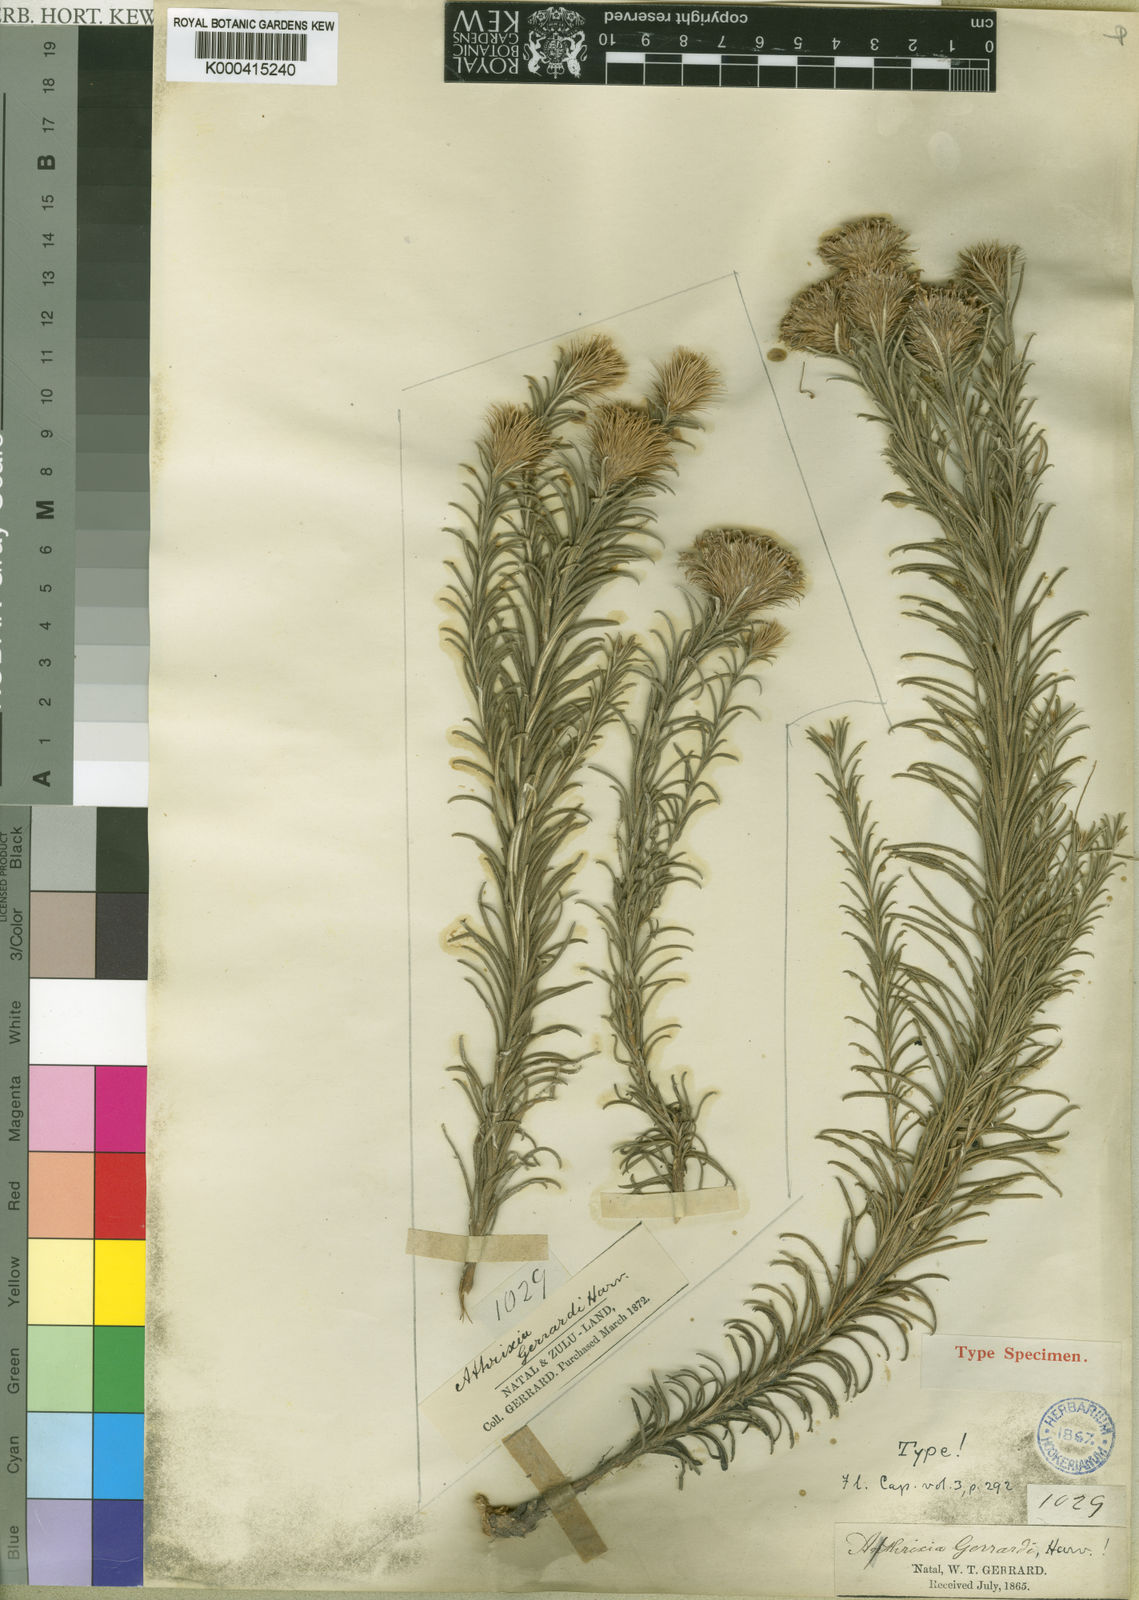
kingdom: Plantae
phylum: Tracheophyta
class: Magnoliopsida
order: Asterales
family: Asteraceae
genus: Athrixia
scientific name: Athrixia gerrardii
